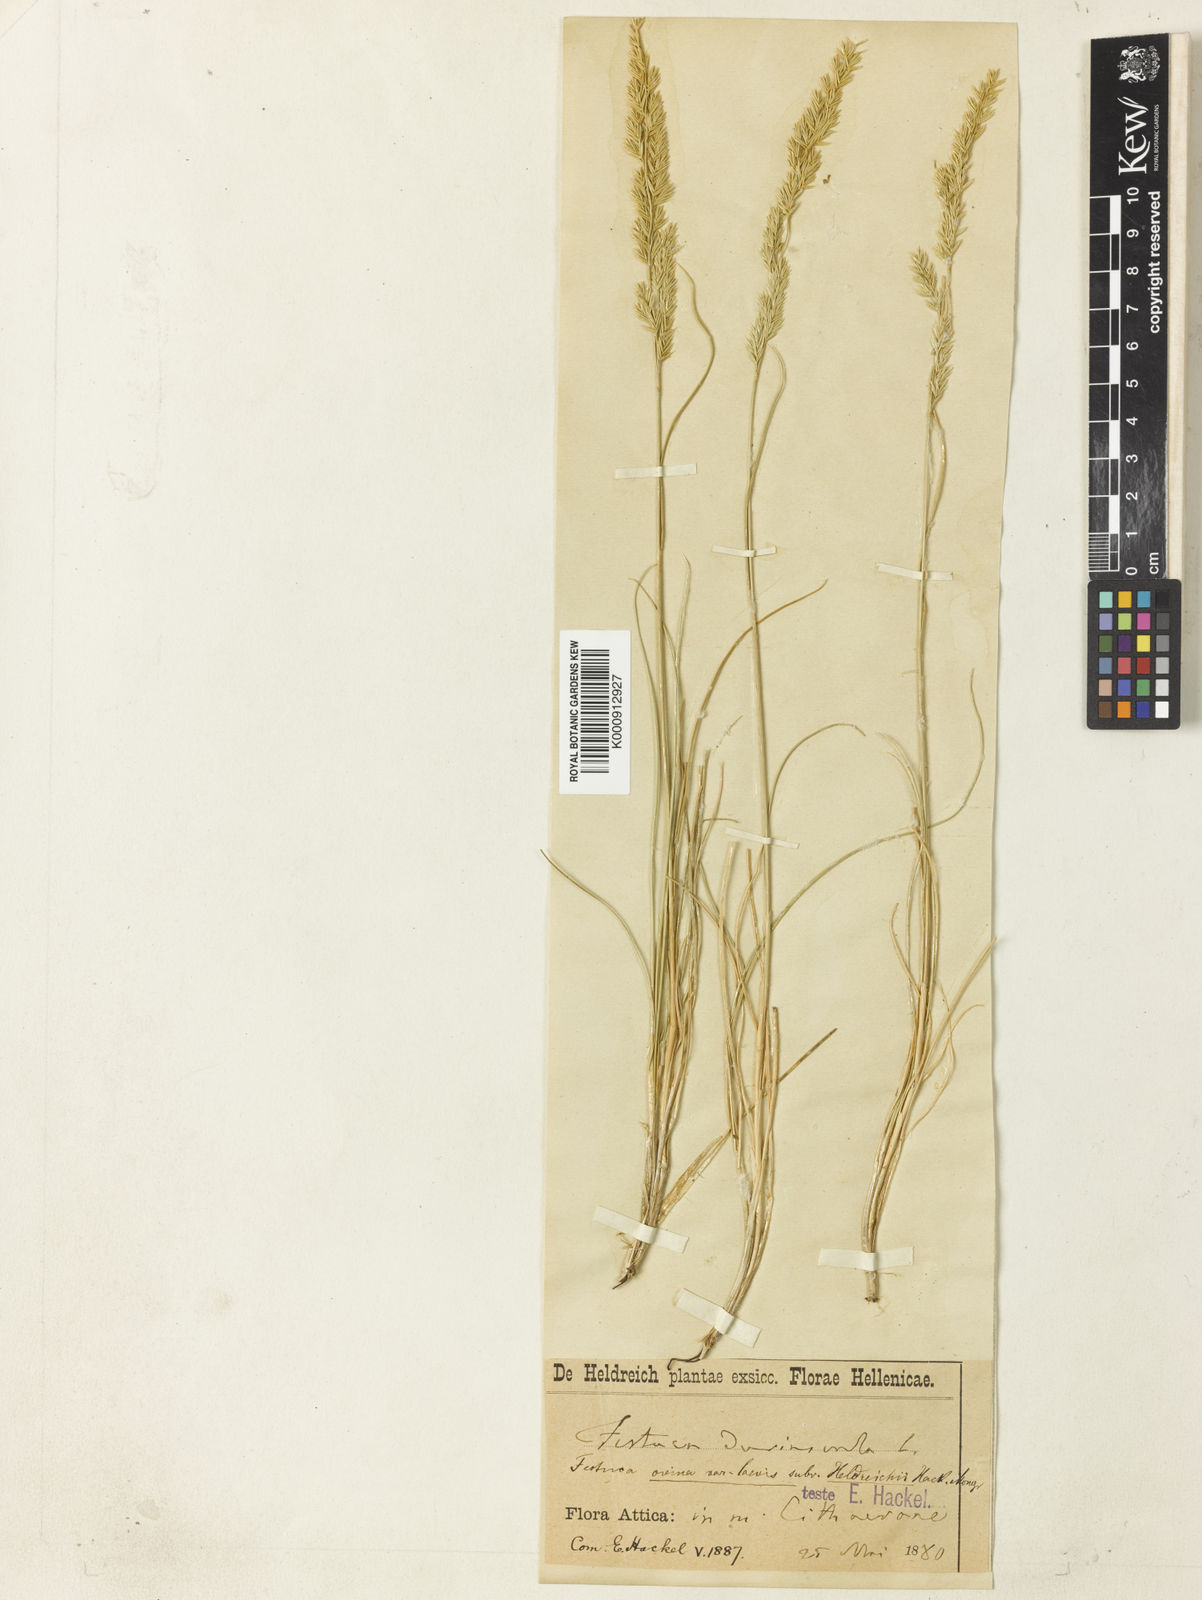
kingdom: Plantae
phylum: Tracheophyta
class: Liliopsida
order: Poales
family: Poaceae
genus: Festuca
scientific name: Festuca jeanpertii
